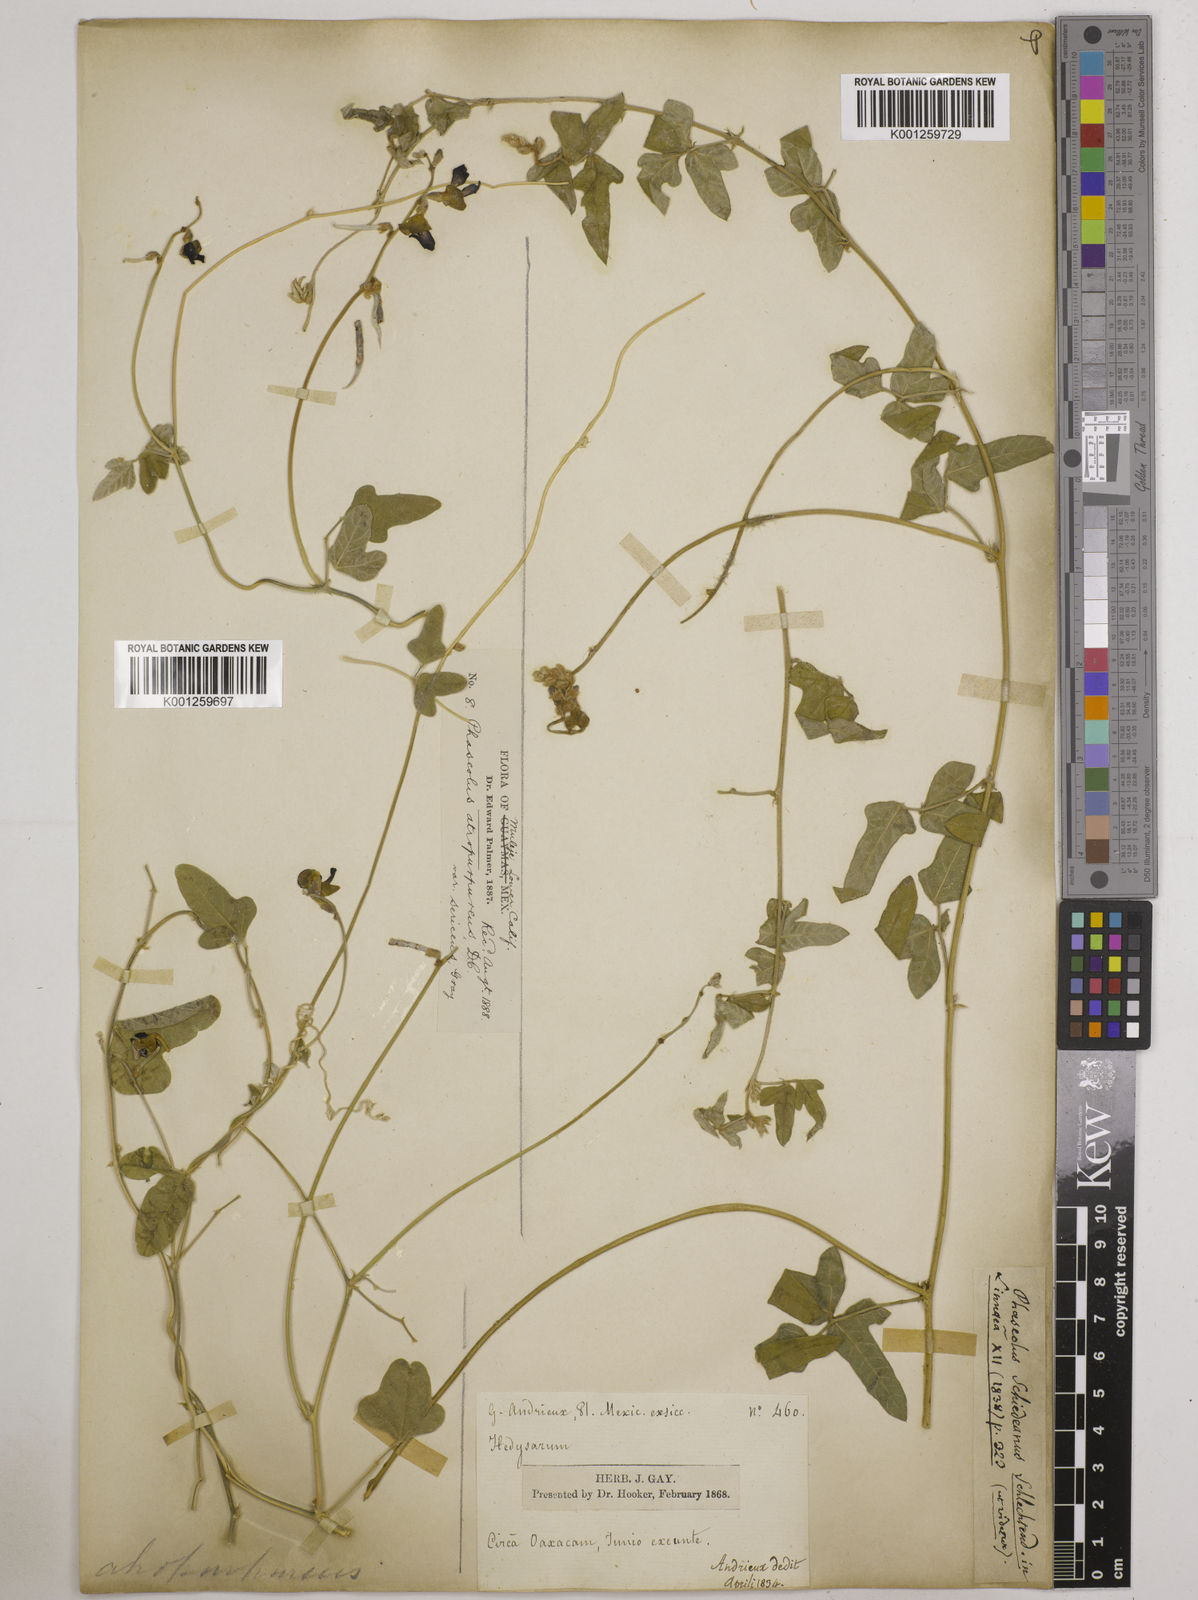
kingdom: Plantae
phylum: Tracheophyta
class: Magnoliopsida
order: Fabales
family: Fabaceae
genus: Macroptilium
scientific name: Macroptilium atropurpureum
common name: Purple bushbean
